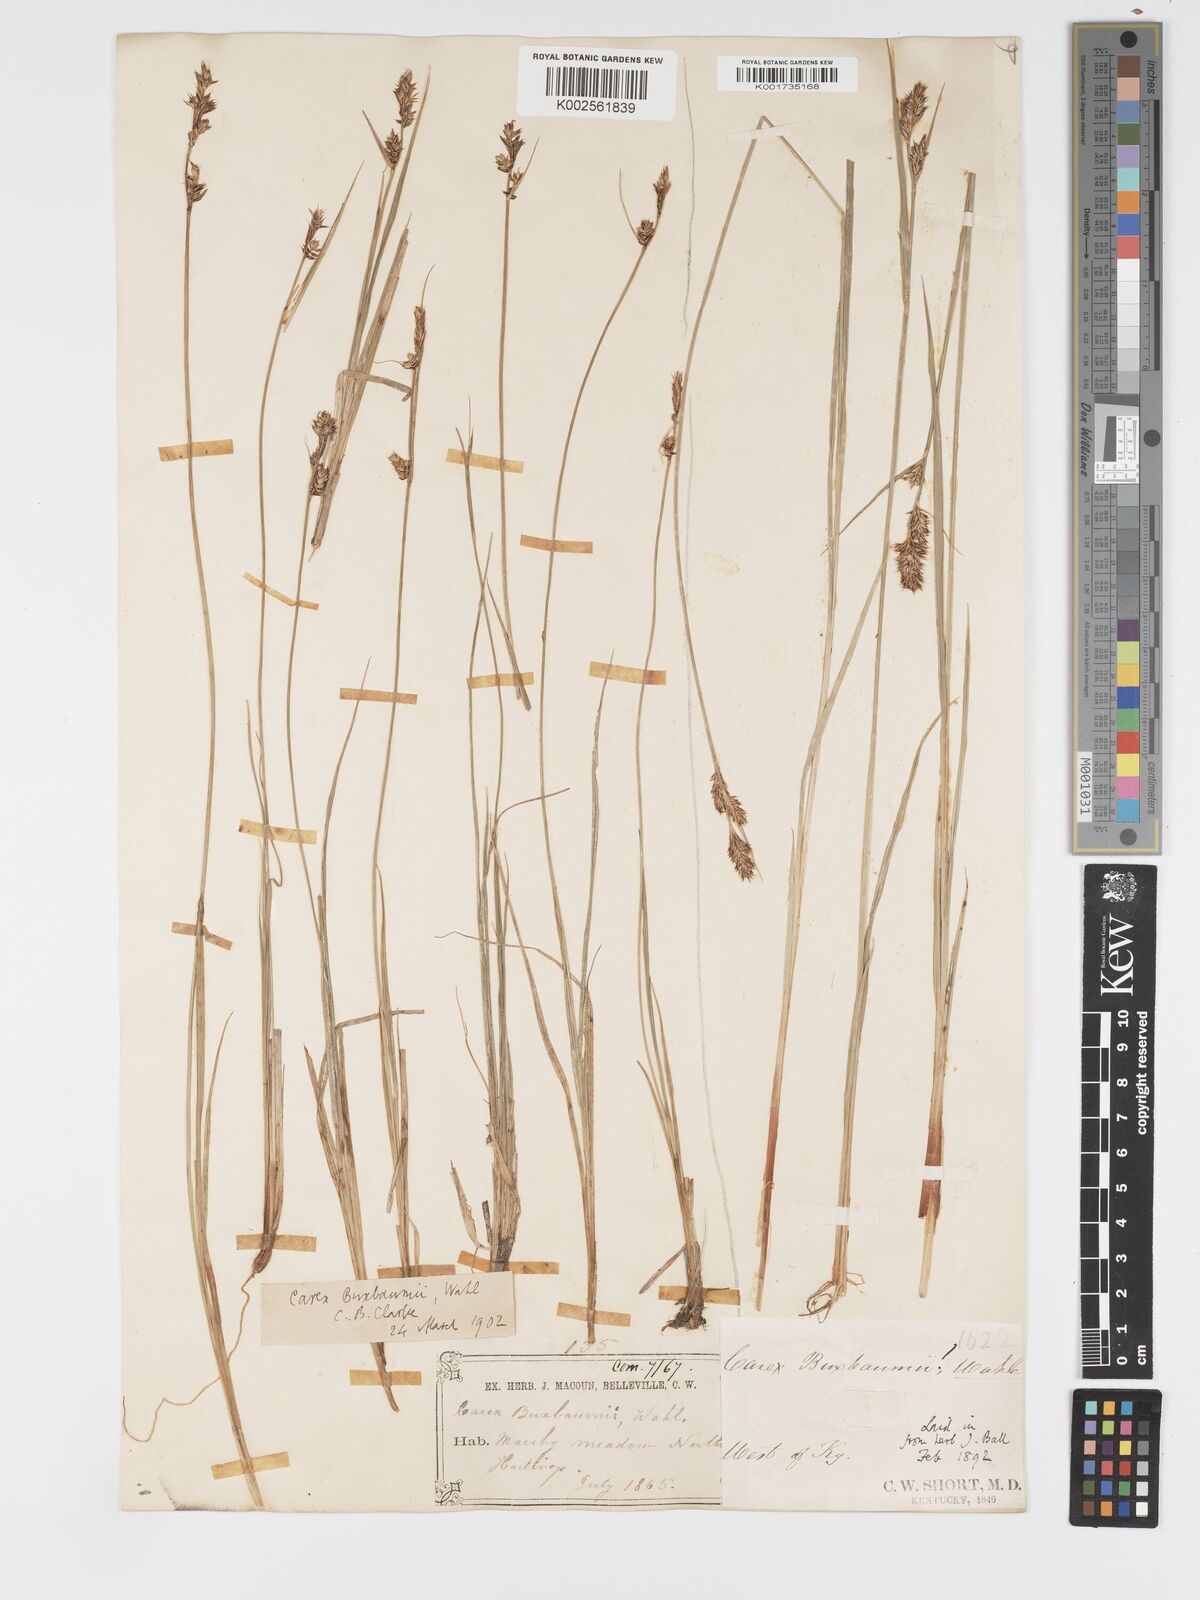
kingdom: Plantae
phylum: Tracheophyta
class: Liliopsida
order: Poales
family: Cyperaceae
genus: Carex
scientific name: Carex buxbaumii
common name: Club sedge
